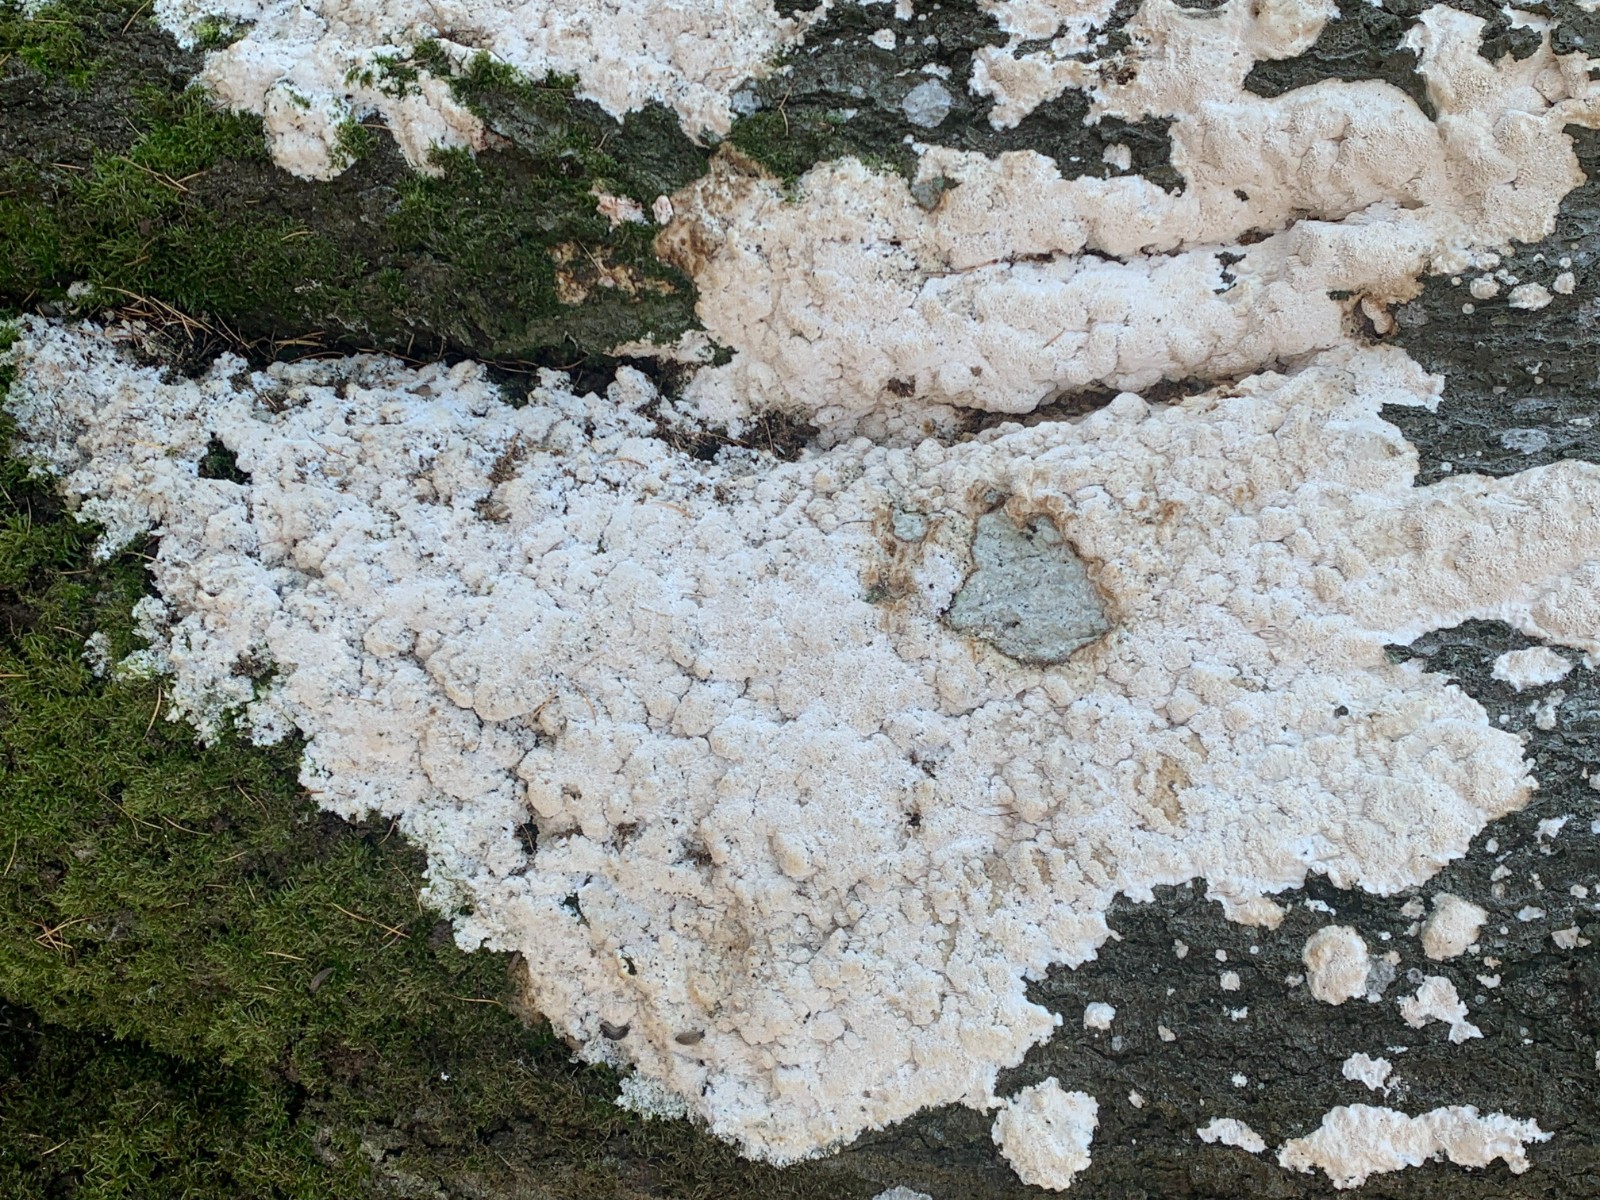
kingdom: Fungi
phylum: Basidiomycota
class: Agaricomycetes
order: Hymenochaetales
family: Hymenochaetaceae
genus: Mensularia
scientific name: Mensularia nodulosa
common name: bøge-spejlporesvamp
